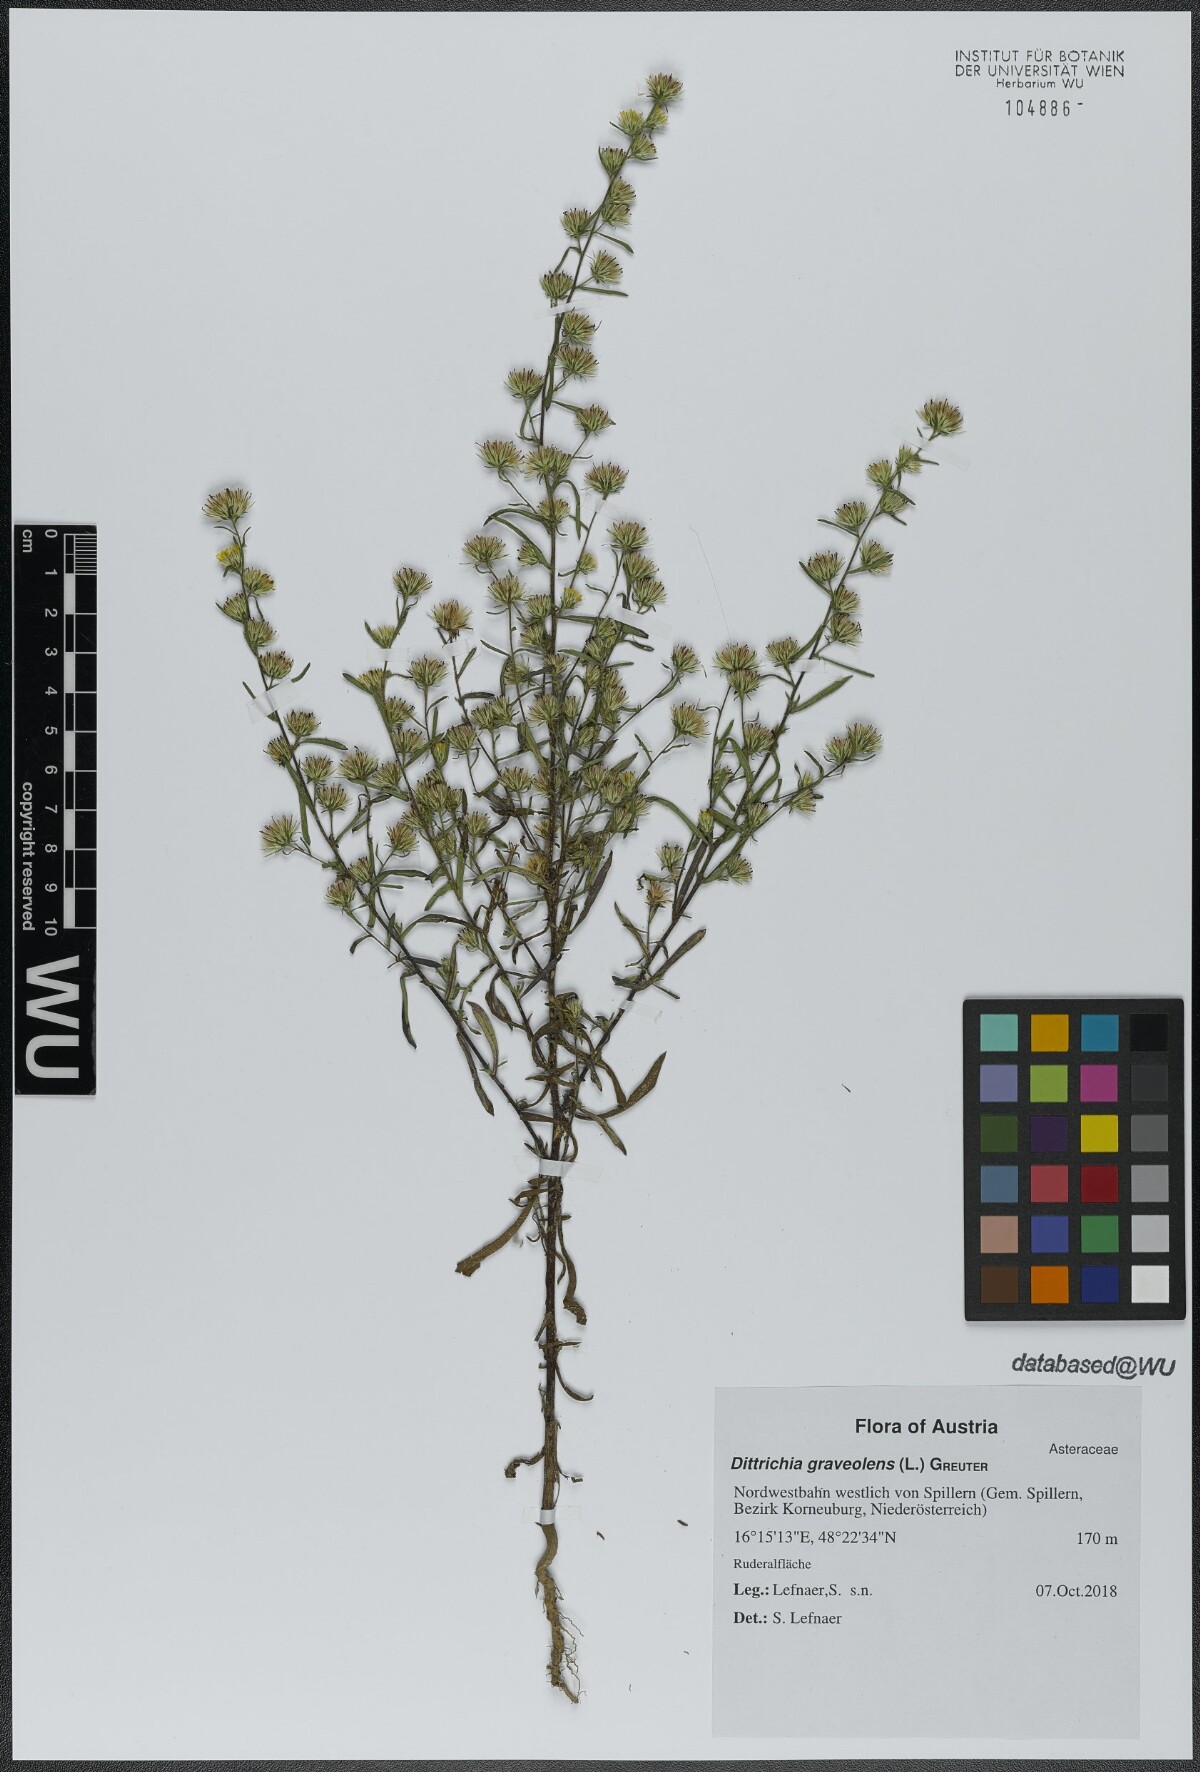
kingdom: Plantae
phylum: Tracheophyta
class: Magnoliopsida
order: Asterales
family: Asteraceae
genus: Dittrichia
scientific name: Dittrichia graveolens
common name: Stinking fleabane
